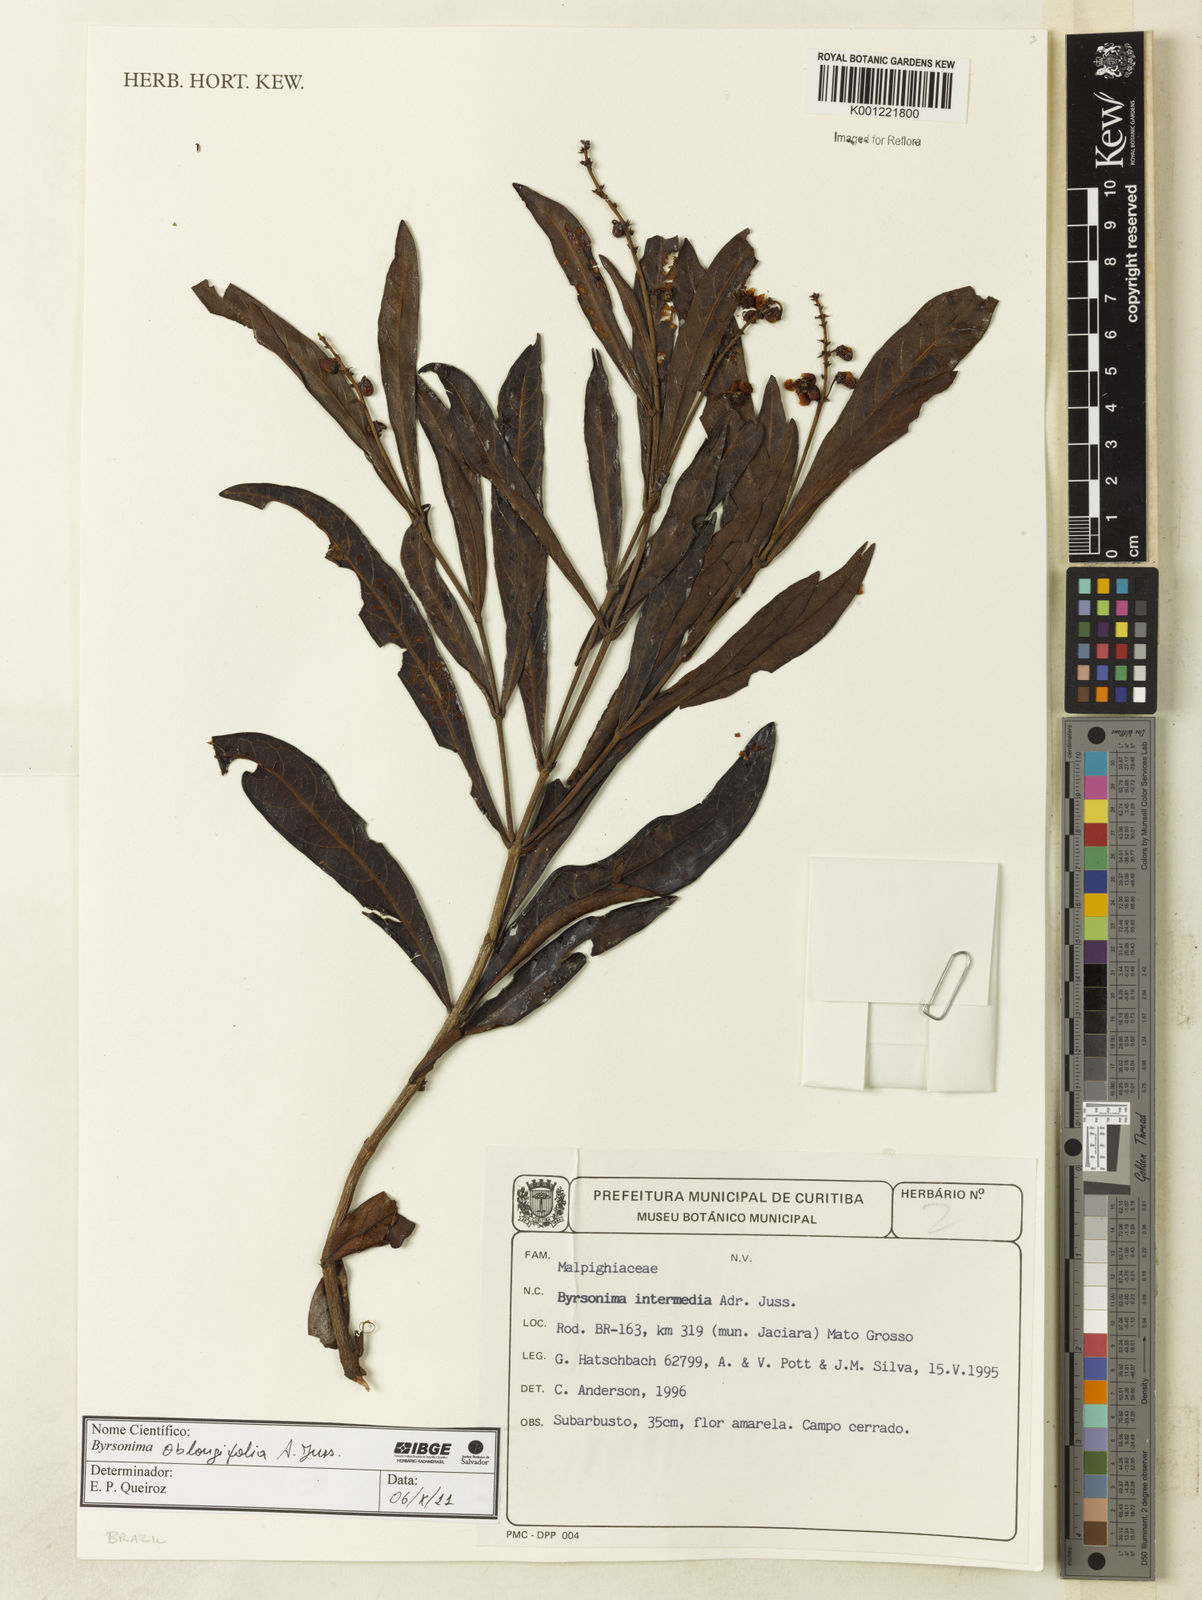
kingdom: Plantae
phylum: Tracheophyta
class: Magnoliopsida
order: Malpighiales
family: Malpighiaceae
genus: Byrsonima
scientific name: Byrsonima oblongifolia
